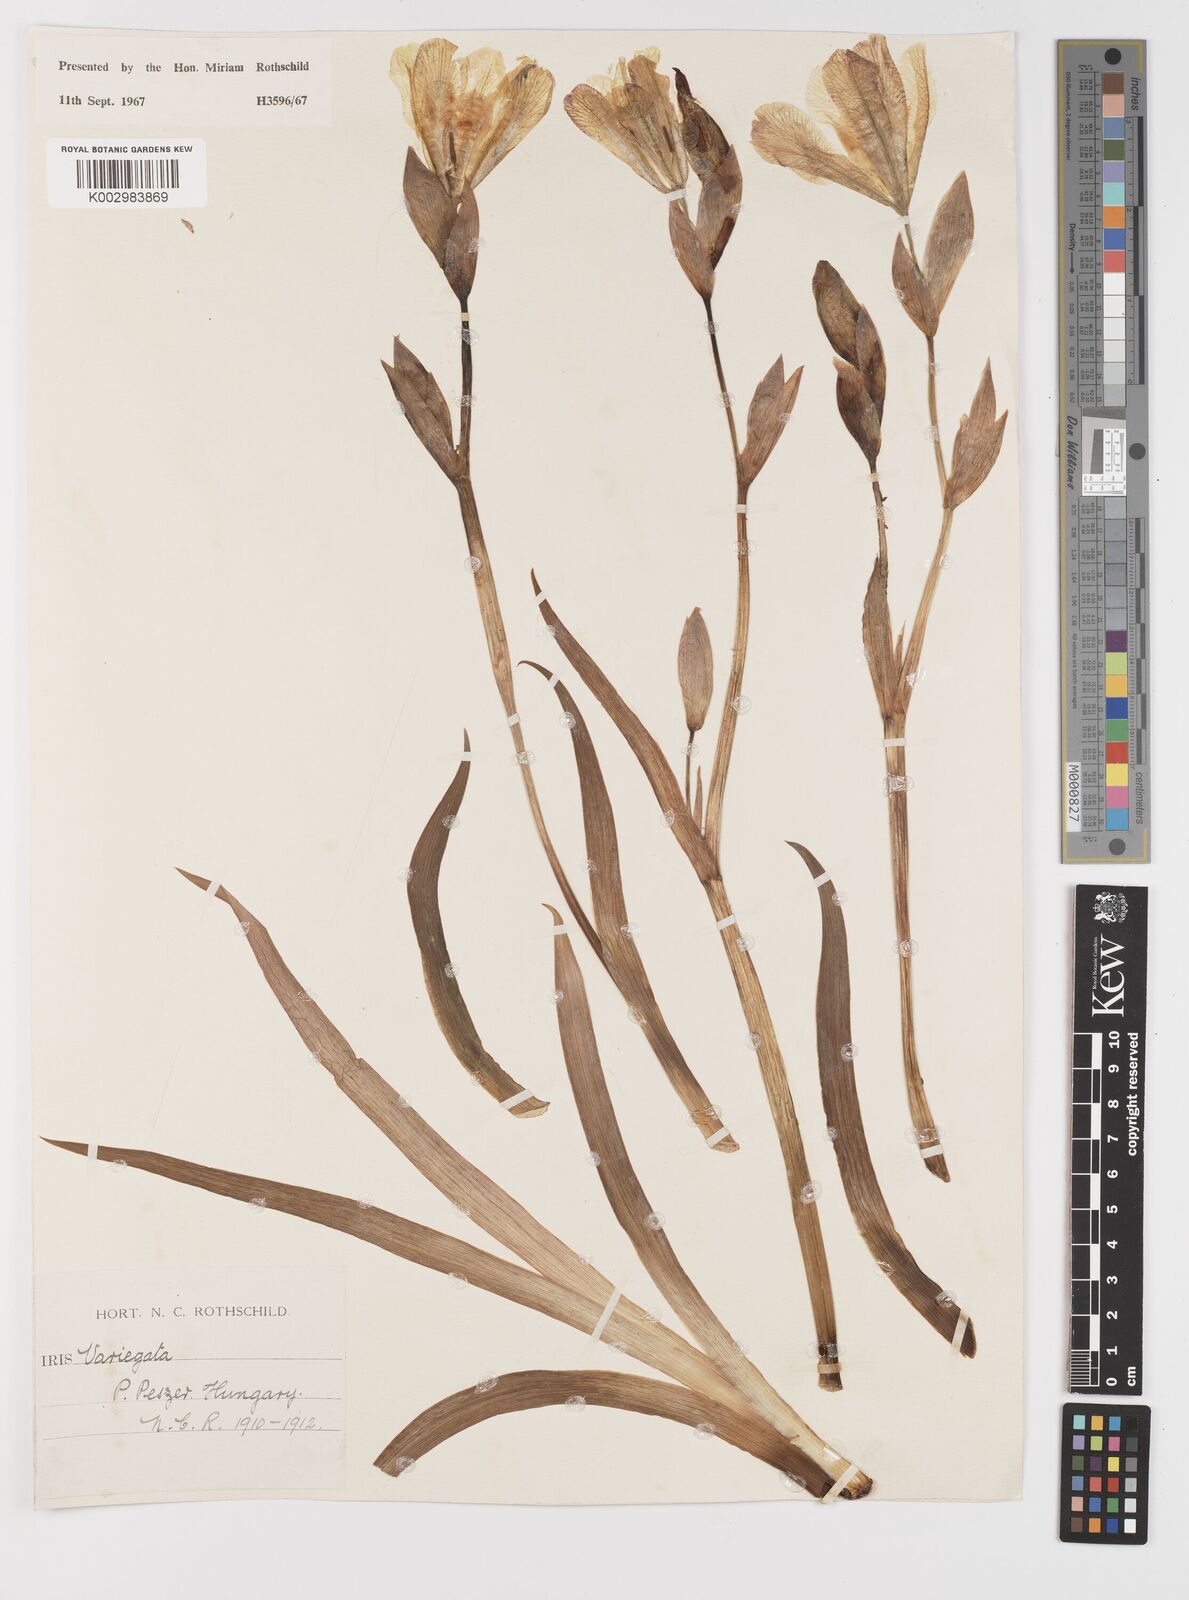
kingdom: Plantae
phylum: Tracheophyta
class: Liliopsida
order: Asparagales
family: Iridaceae
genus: Iris
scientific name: Iris variegata
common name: Hungarian iris
